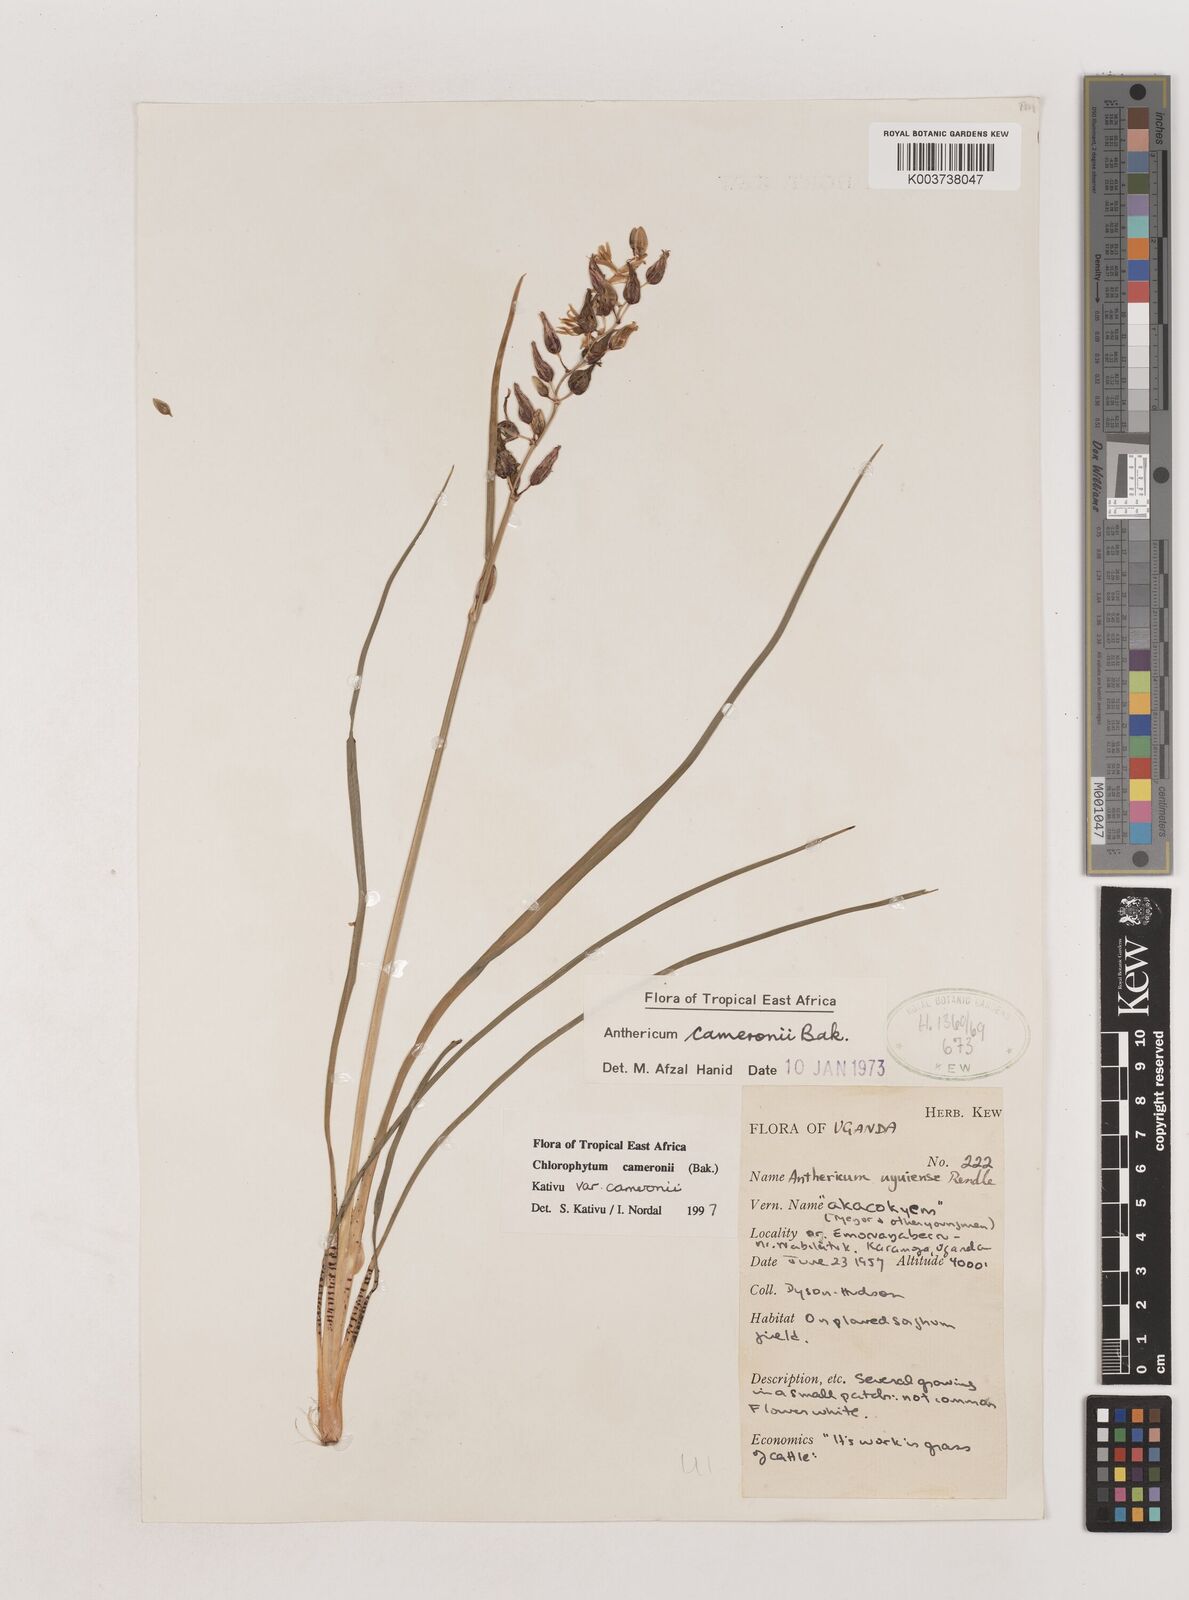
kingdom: Plantae
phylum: Tracheophyta
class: Liliopsida
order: Asparagales
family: Asparagaceae
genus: Chlorophytum
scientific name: Chlorophytum cameronii
